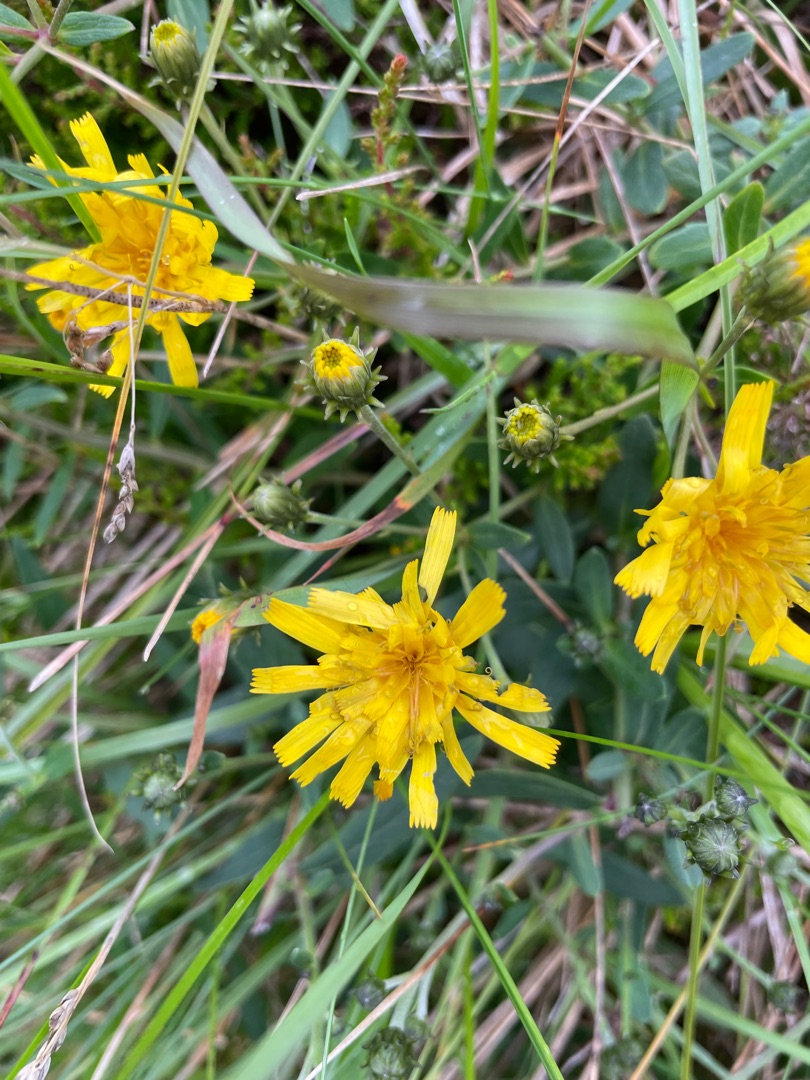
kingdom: Plantae
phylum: Tracheophyta
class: Magnoliopsida
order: Asterales
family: Asteraceae
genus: Hieracium
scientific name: Hieracium umbellatum
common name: Smalbladet høgeurt
